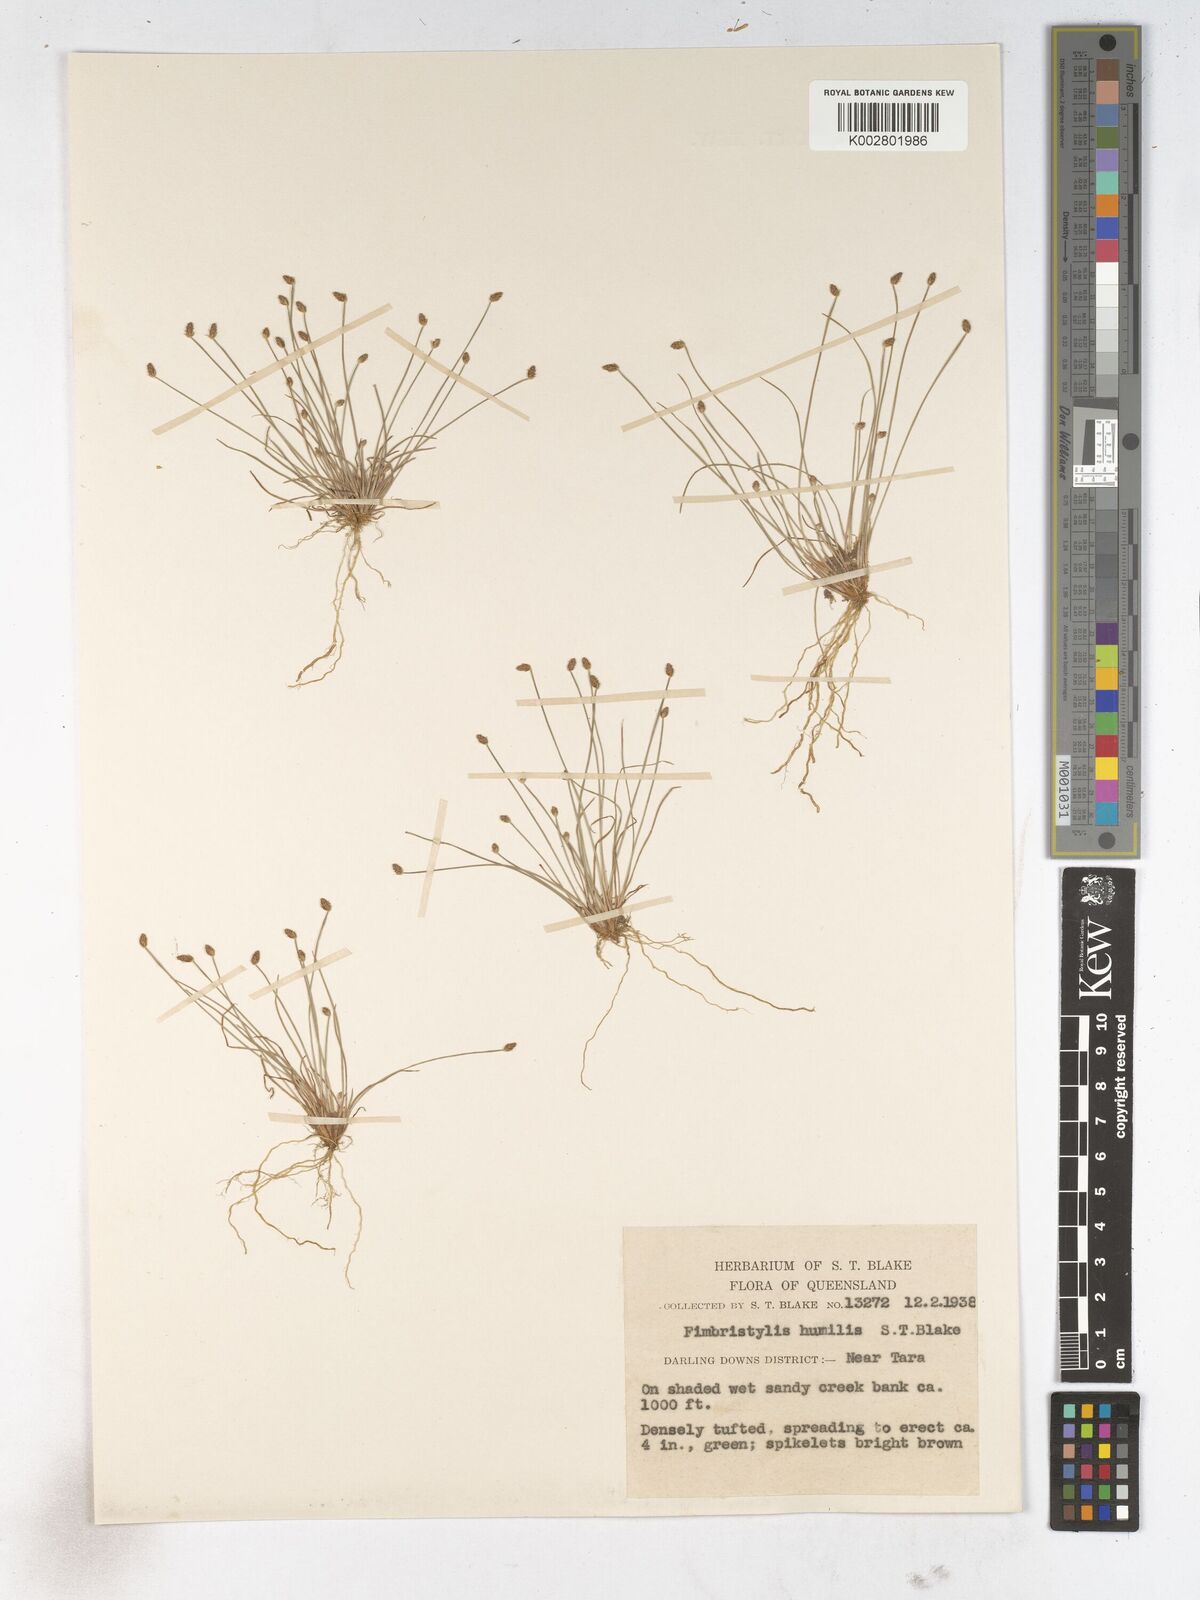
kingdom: Plantae
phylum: Tracheophyta
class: Liliopsida
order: Poales
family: Cyperaceae
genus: Fimbristylis
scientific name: Fimbristylis nuda
